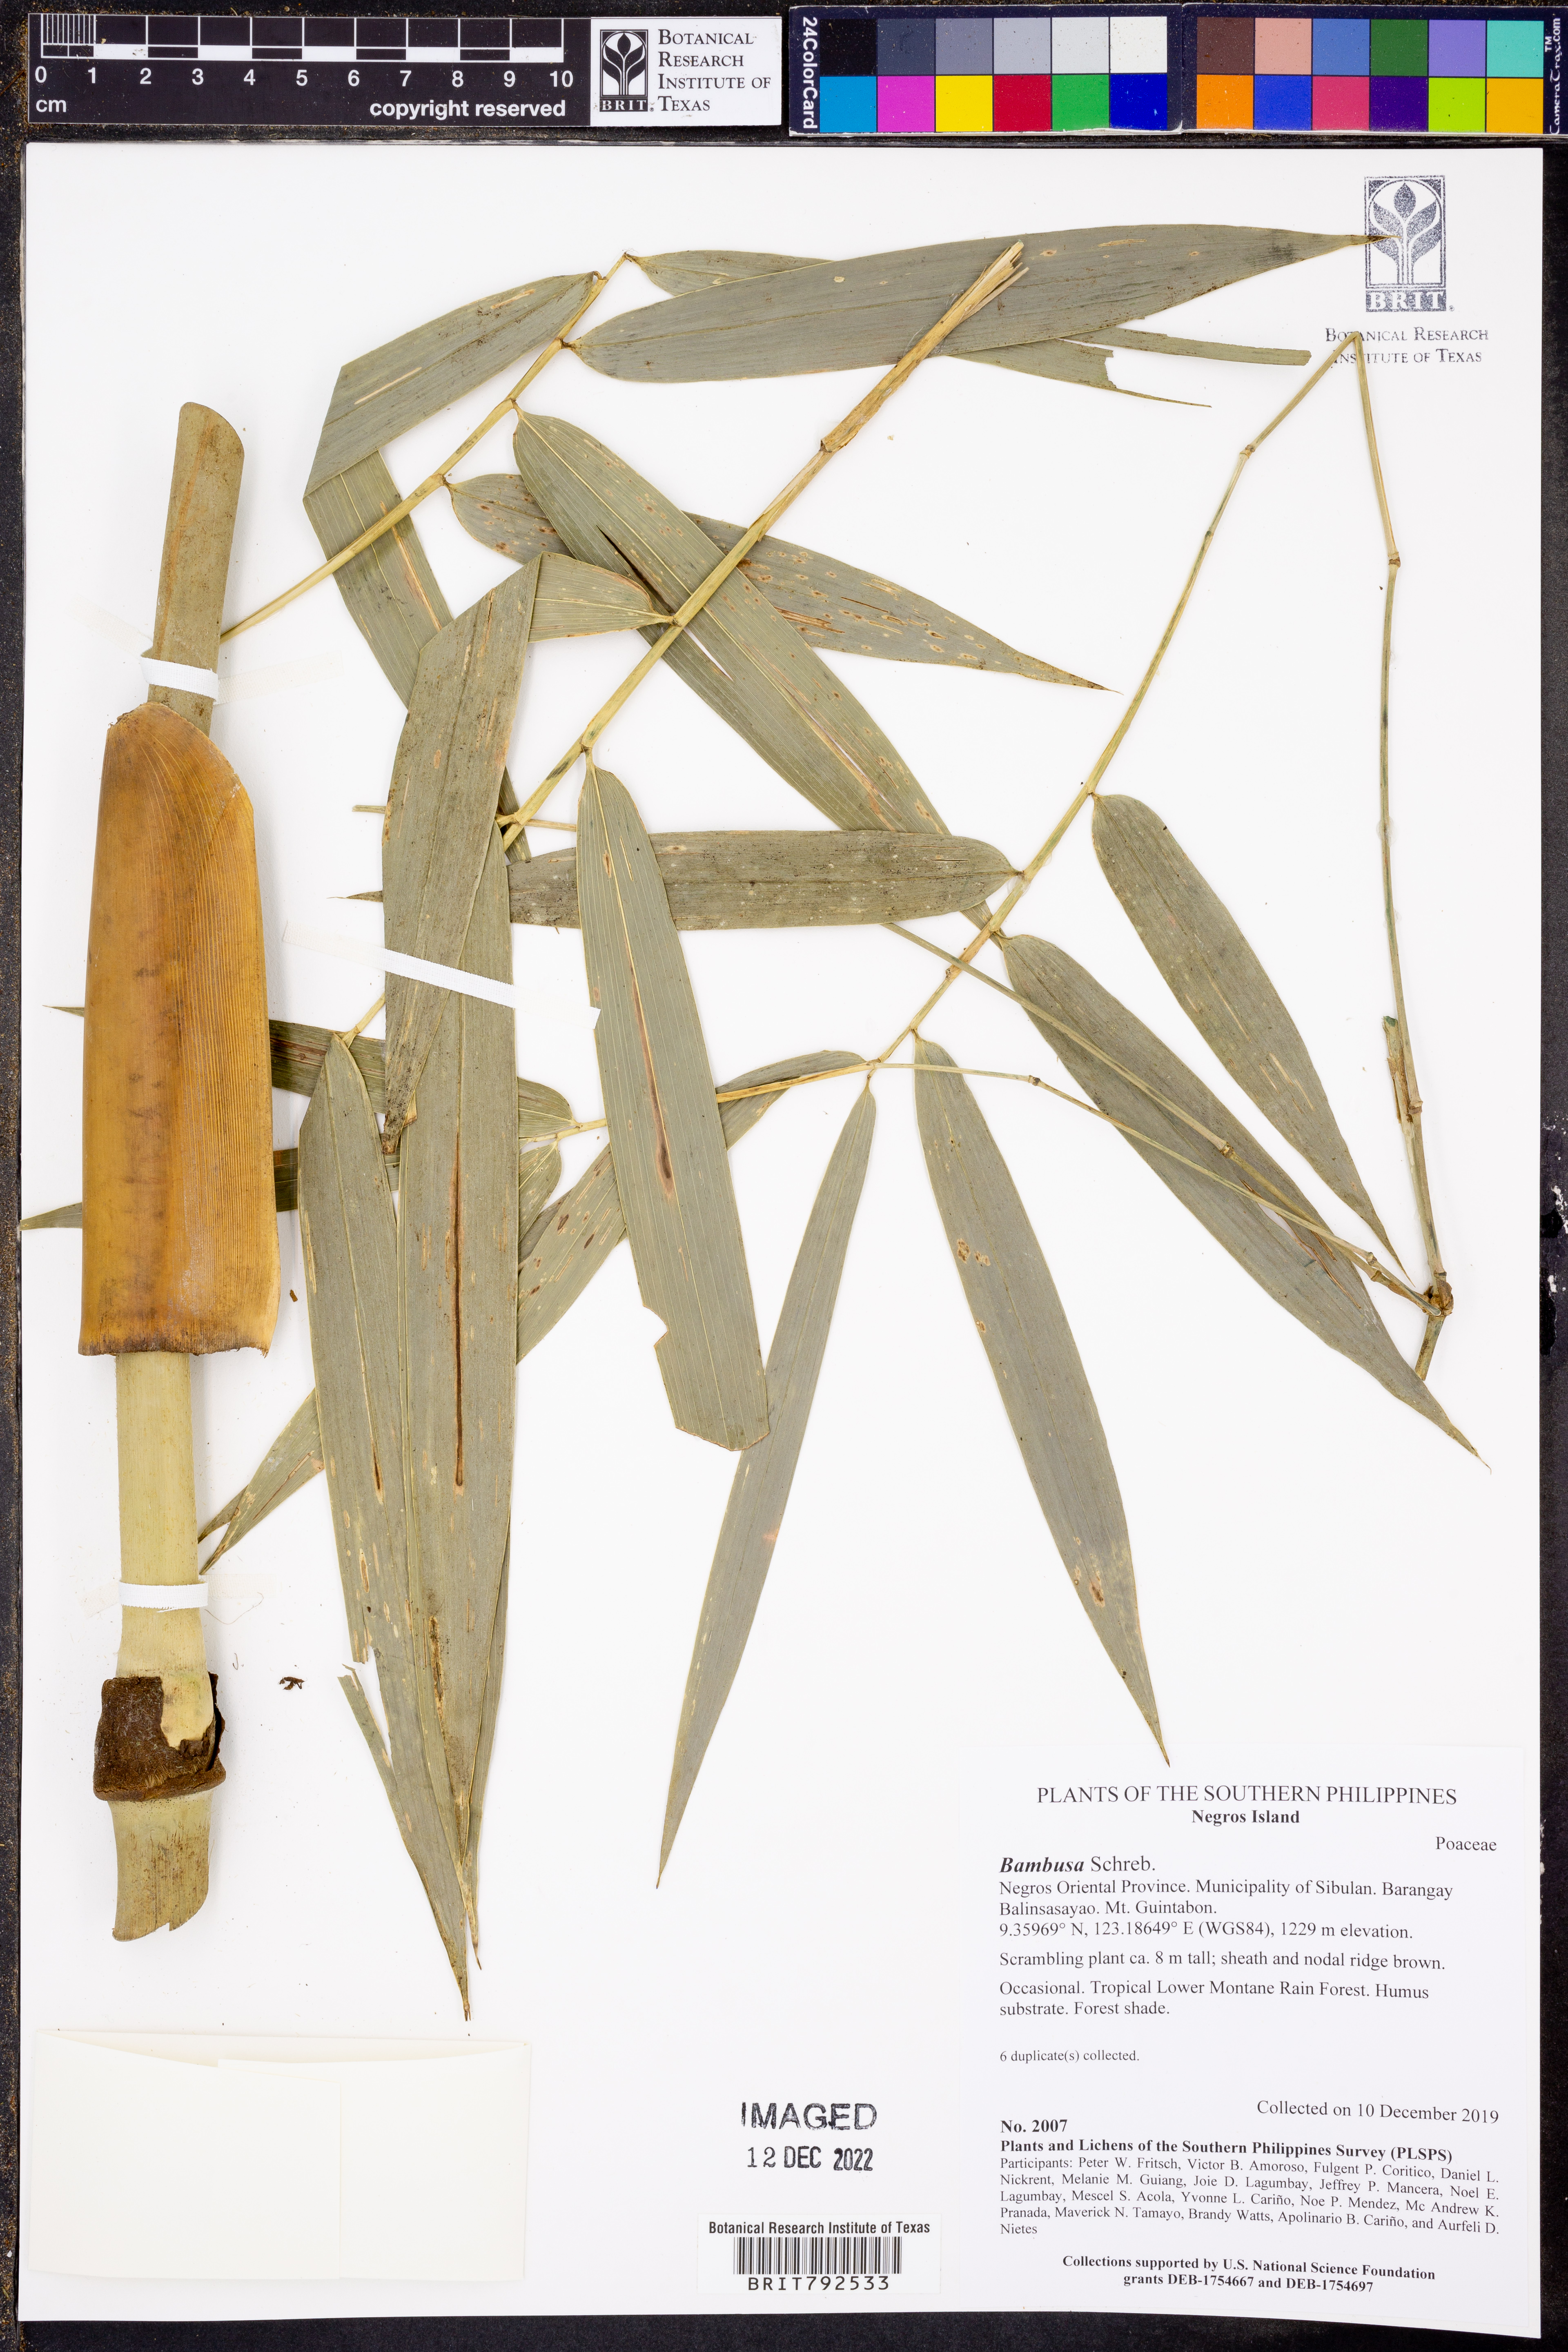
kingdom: Plantae
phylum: Tracheophyta
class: Liliopsida
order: Poales
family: Poaceae
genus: Bambusa
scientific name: Bambusa
